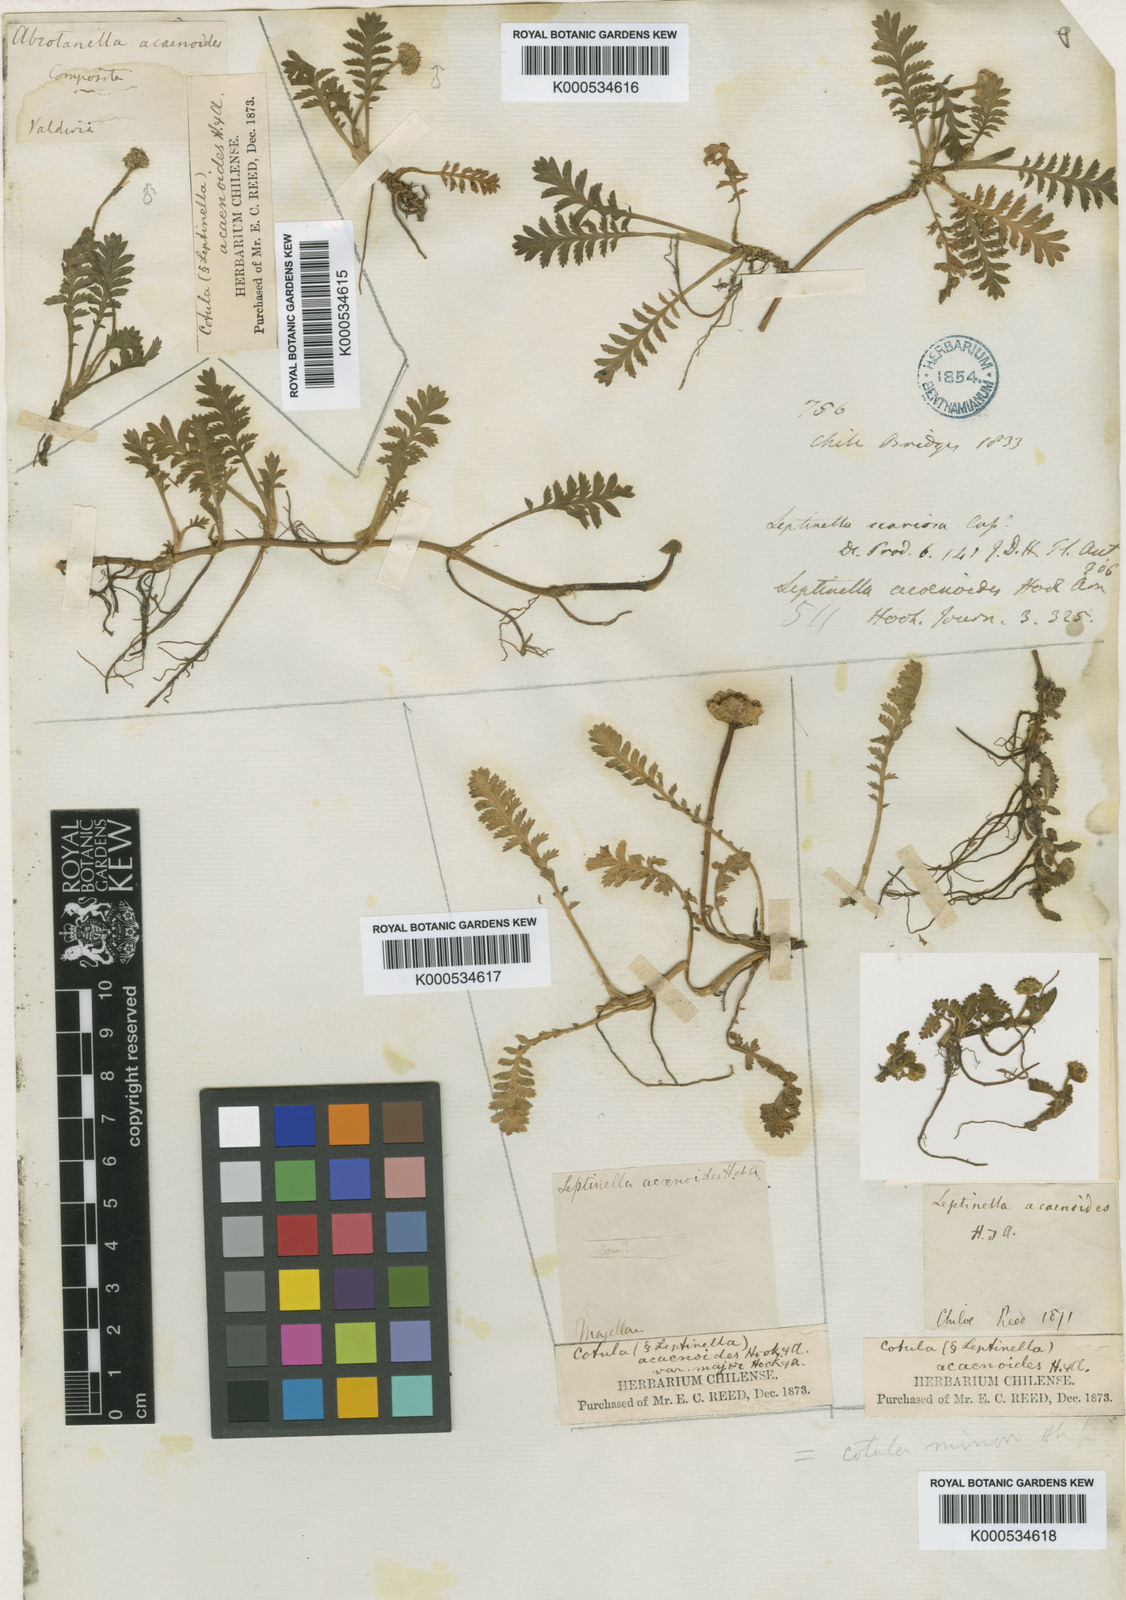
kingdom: Plantae
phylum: Tracheophyta
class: Magnoliopsida
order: Asterales
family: Asteraceae
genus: Leptinella
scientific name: Leptinella scariosa
